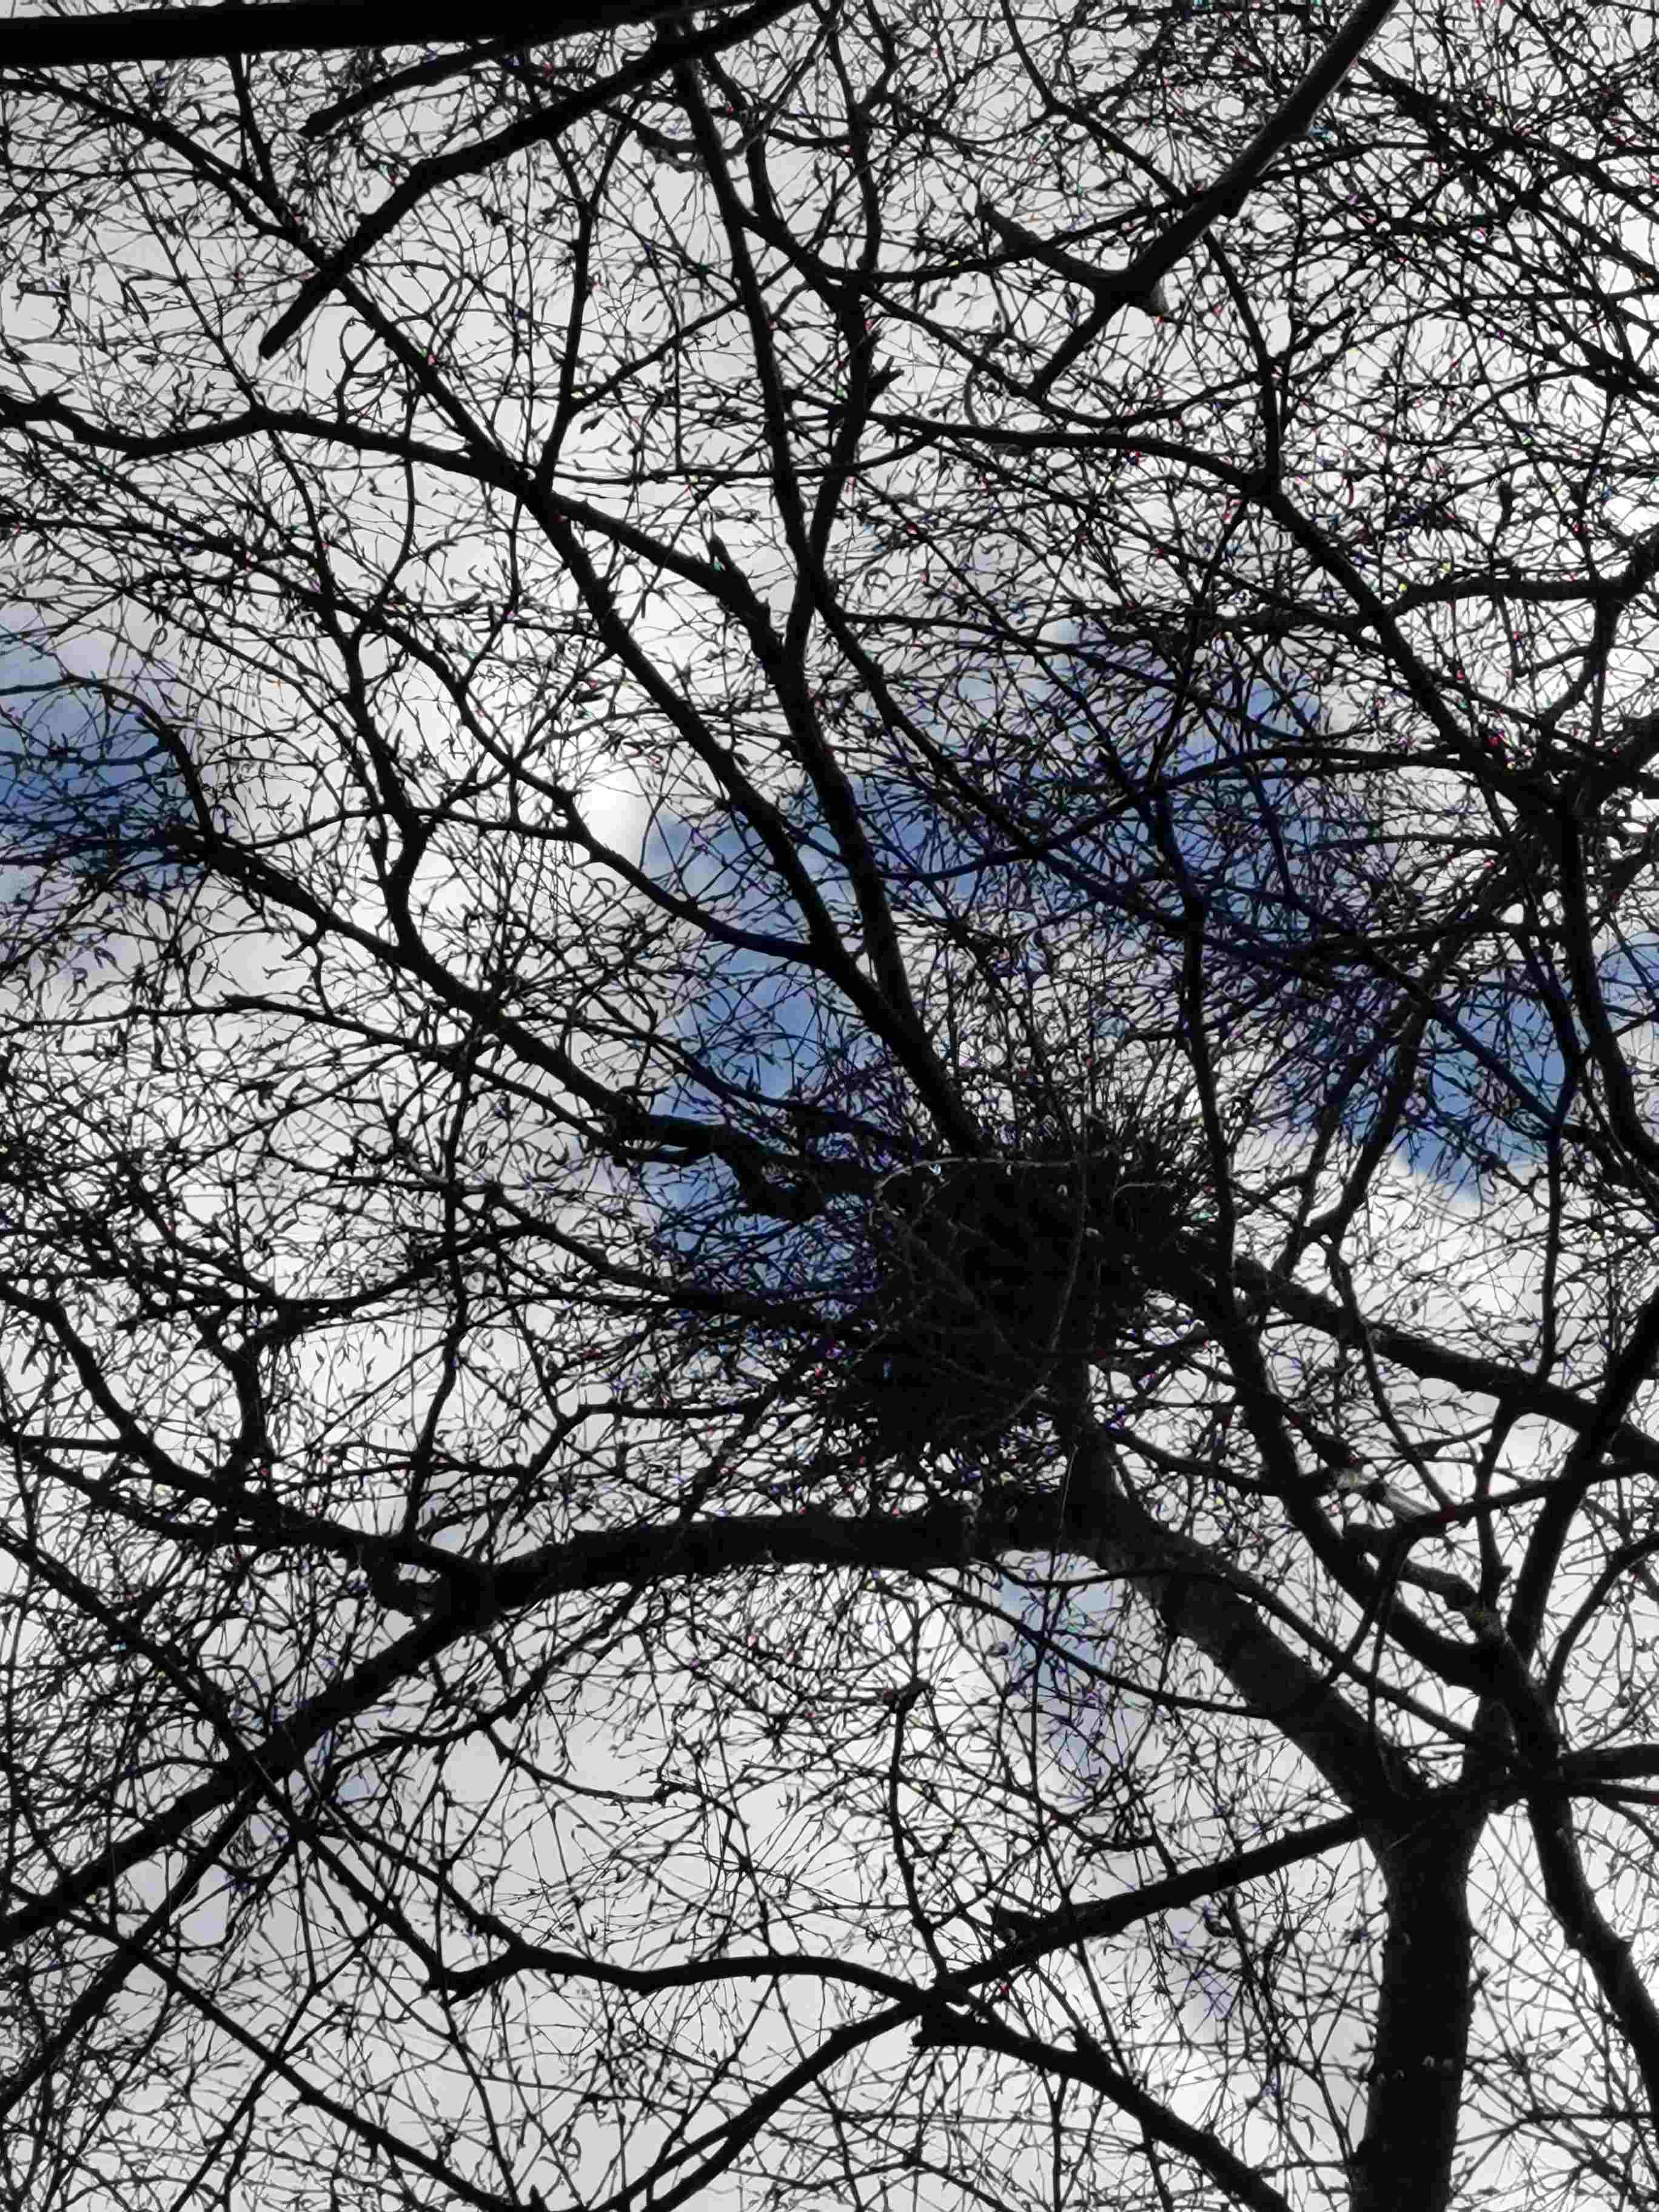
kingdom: Fungi
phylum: Ascomycota
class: Taphrinomycetes
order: Taphrinales
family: Taphrinaceae
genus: Taphrina
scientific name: Taphrina betulina
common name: hekse-sækdug
